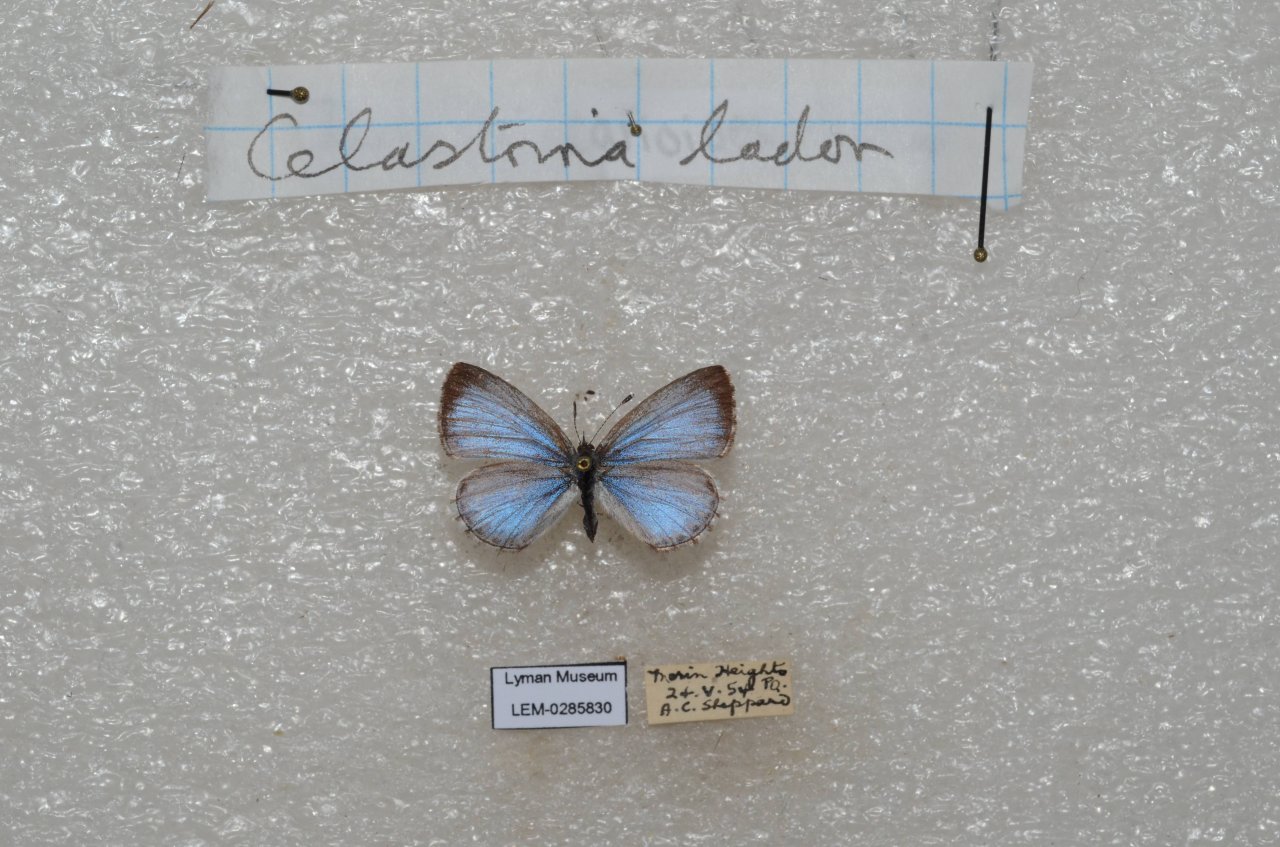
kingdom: Animalia
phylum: Arthropoda
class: Insecta
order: Lepidoptera
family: Lycaenidae
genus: Celastrina
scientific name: Celastrina lucia
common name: Northern Spring Azure
